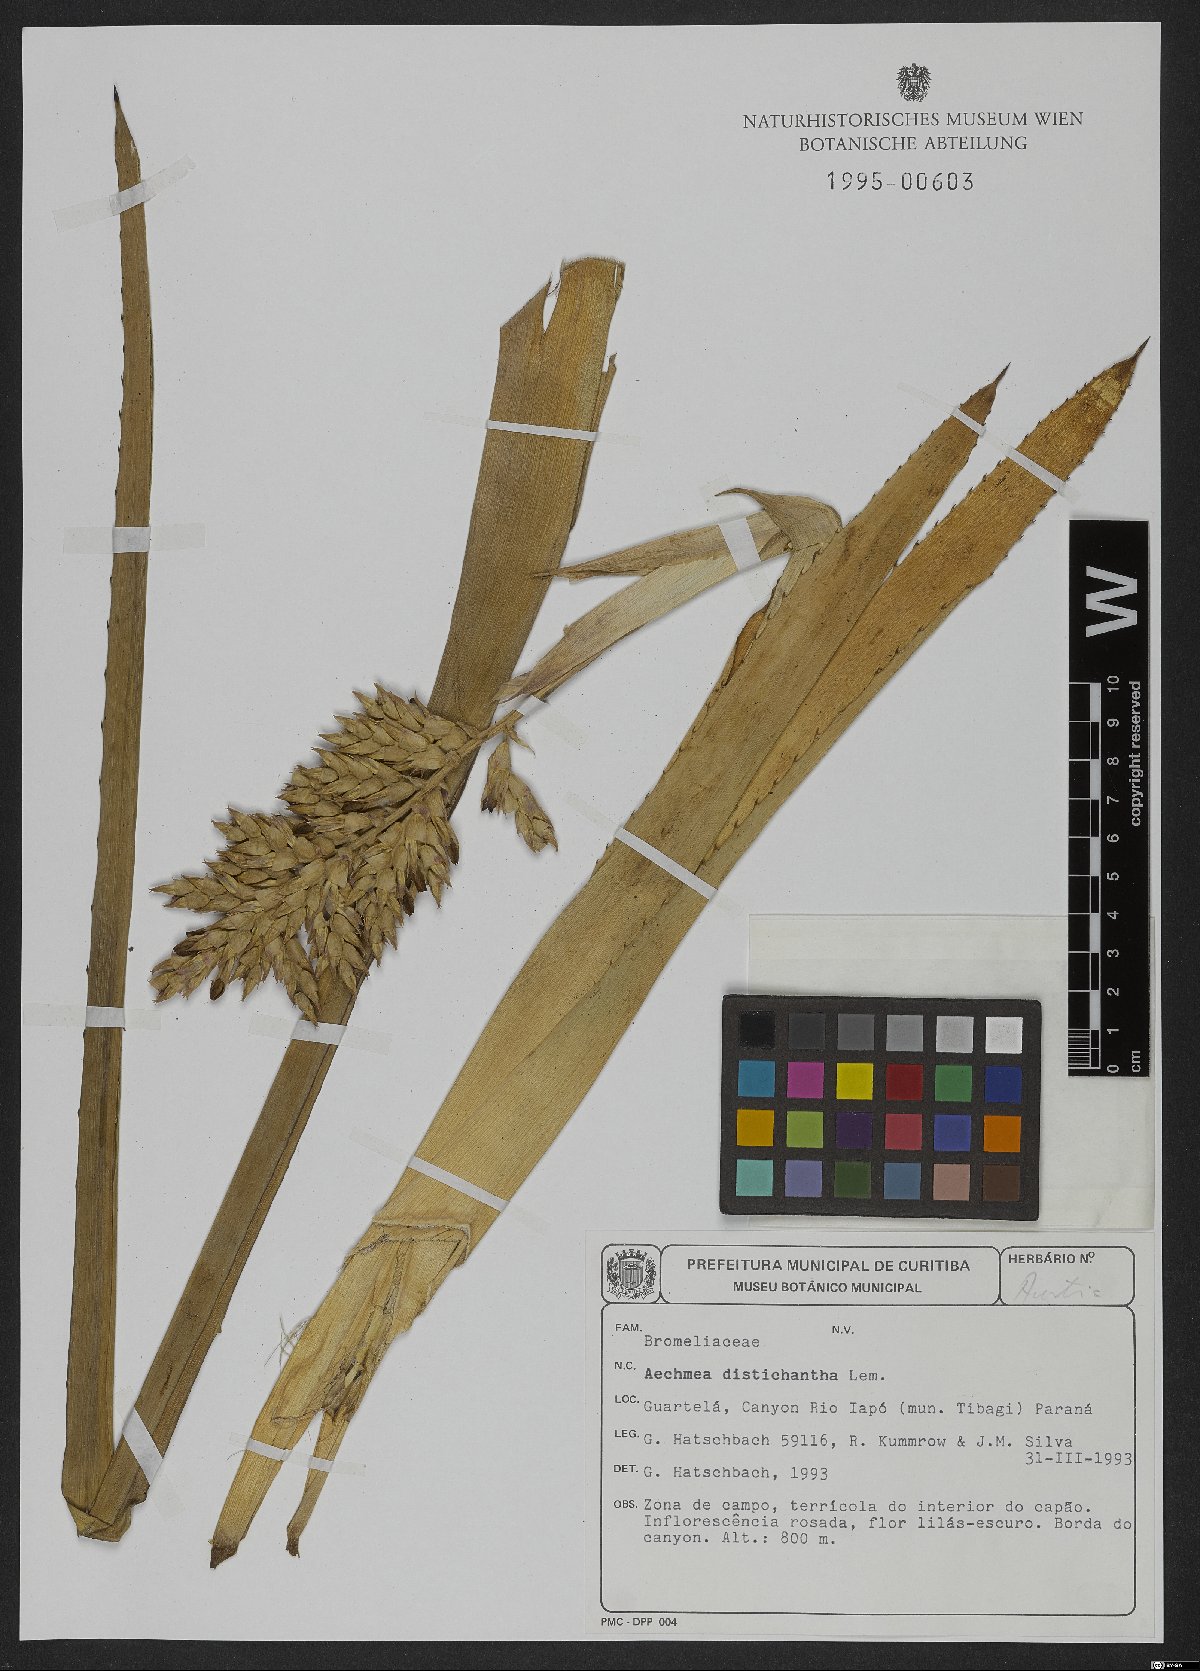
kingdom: Plantae
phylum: Tracheophyta
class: Liliopsida
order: Poales
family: Bromeliaceae
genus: Aechmea
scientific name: Aechmea distichantha
